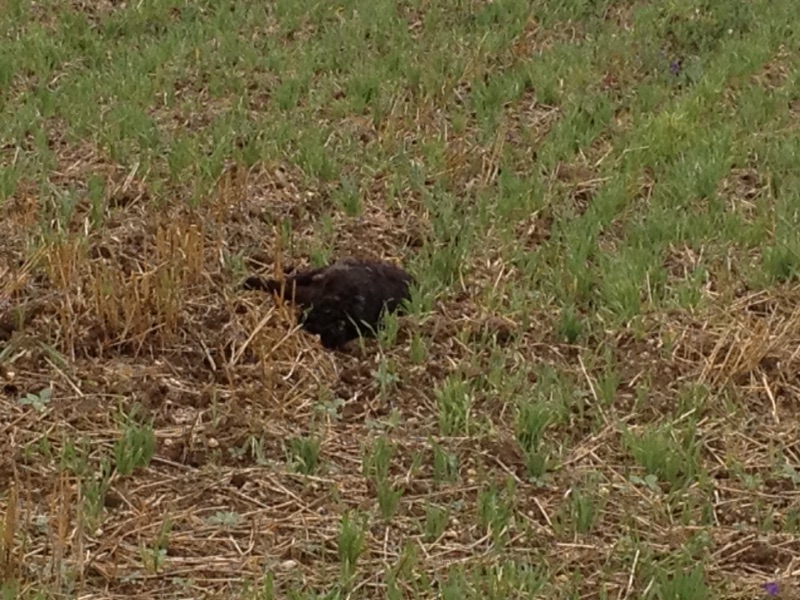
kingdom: Animalia
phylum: Chordata
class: Mammalia
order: Carnivora
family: Felidae
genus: Felis
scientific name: Felis catus
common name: Domestic cat
